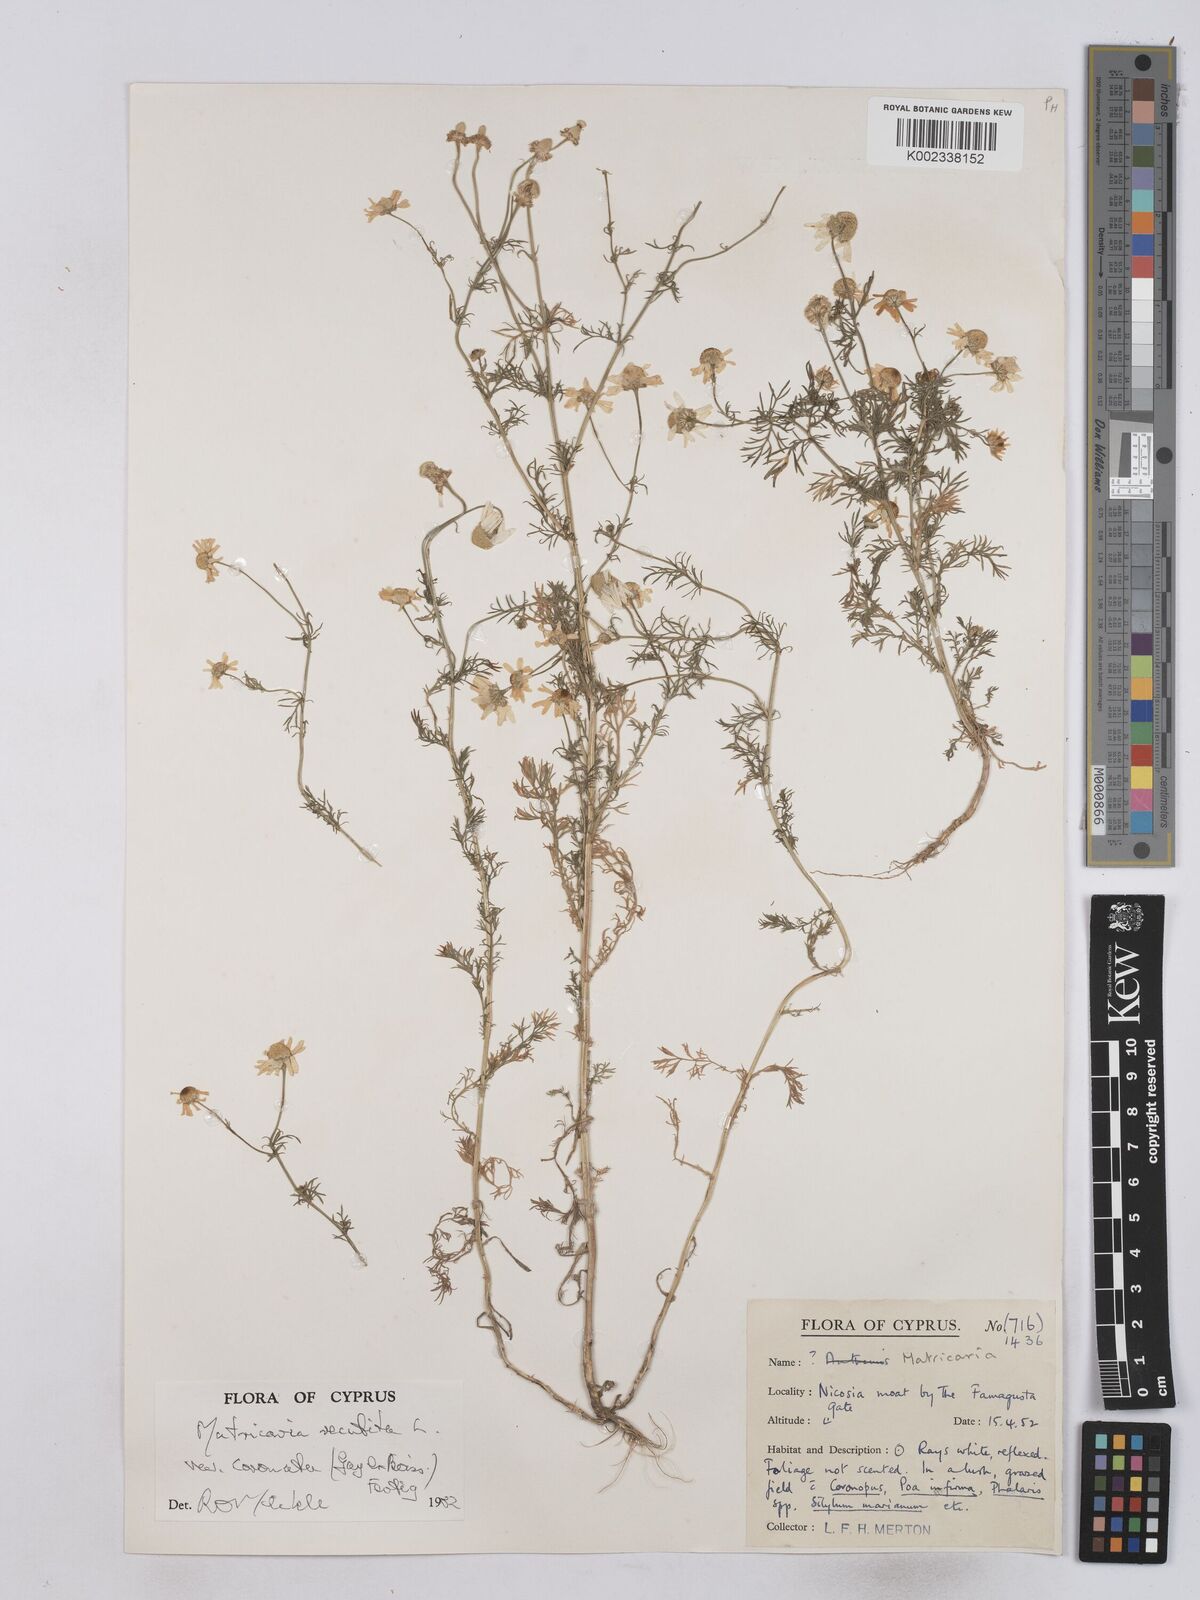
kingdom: Plantae
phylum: Tracheophyta
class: Magnoliopsida
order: Asterales
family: Asteraceae
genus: Matricaria
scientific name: Matricaria chamomilla
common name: Scented mayweed
